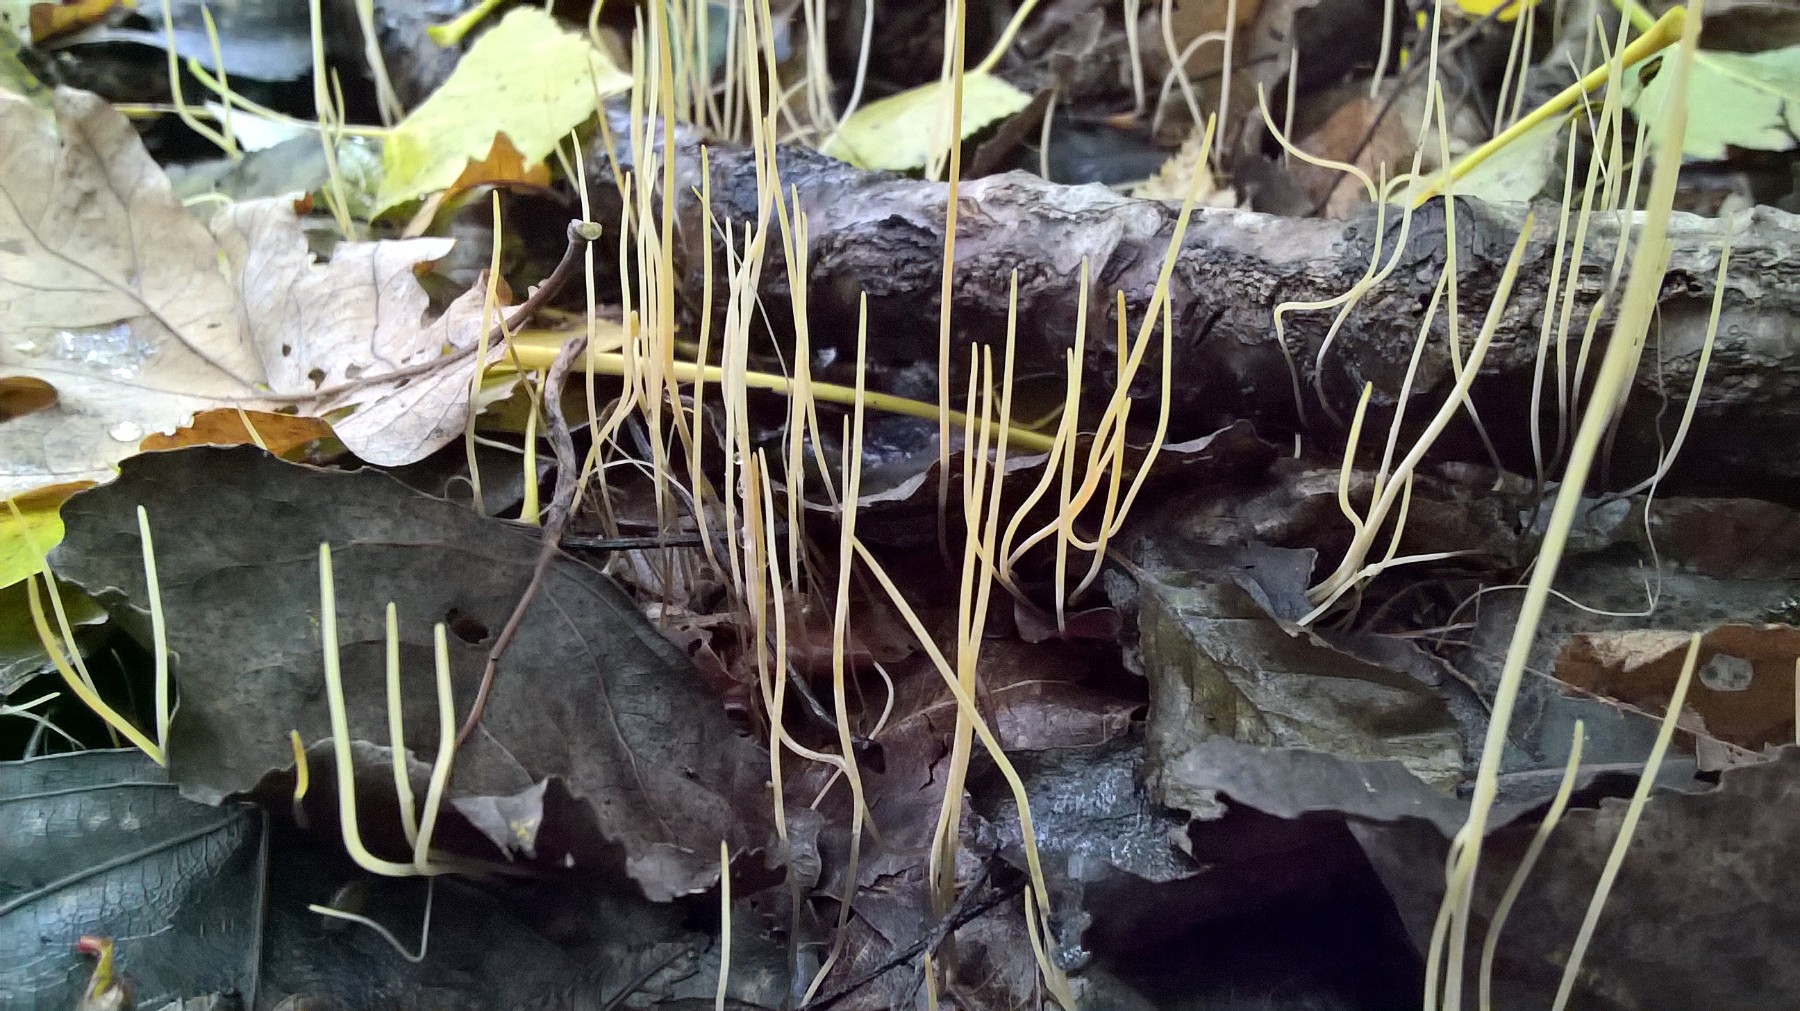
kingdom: Fungi
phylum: Basidiomycota
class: Agaricomycetes
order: Agaricales
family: Typhulaceae
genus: Typhula
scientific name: Typhula juncea
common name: trådagtig rørkølle
